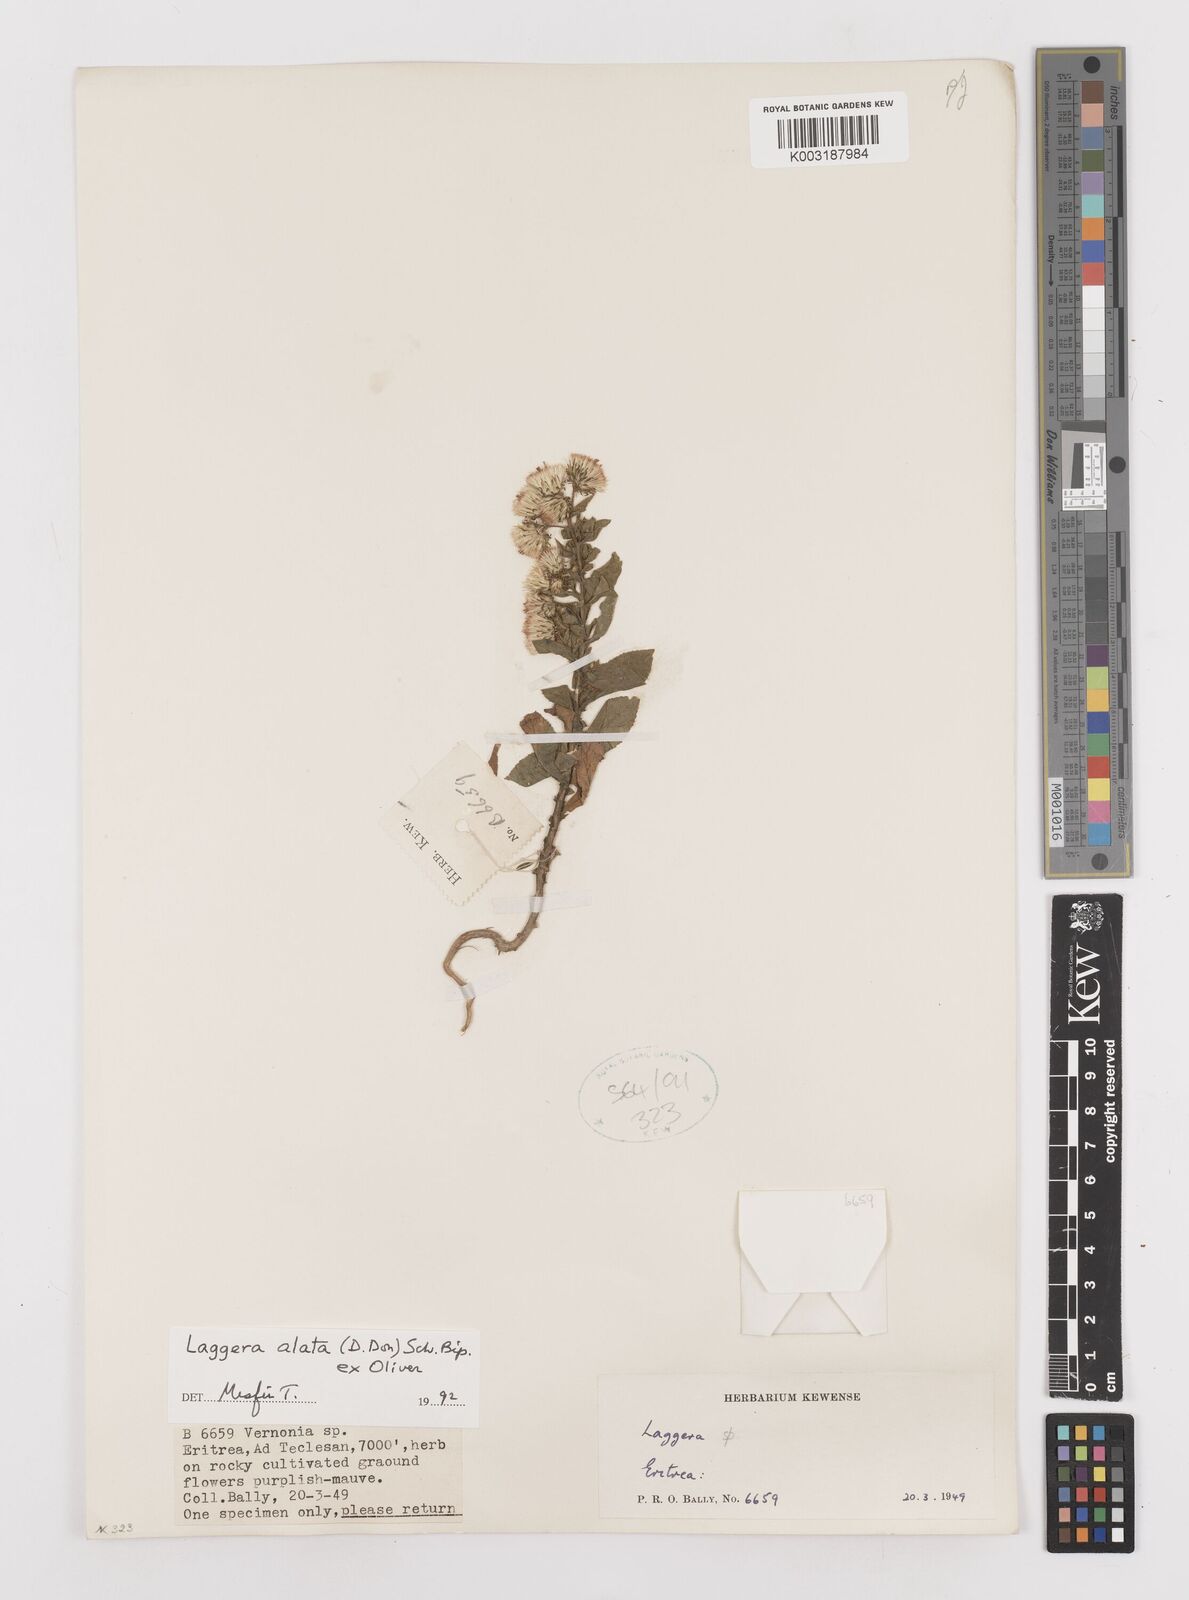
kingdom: Plantae
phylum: Tracheophyta
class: Magnoliopsida
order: Asterales
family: Asteraceae
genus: Laggera
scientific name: Laggera crispata
